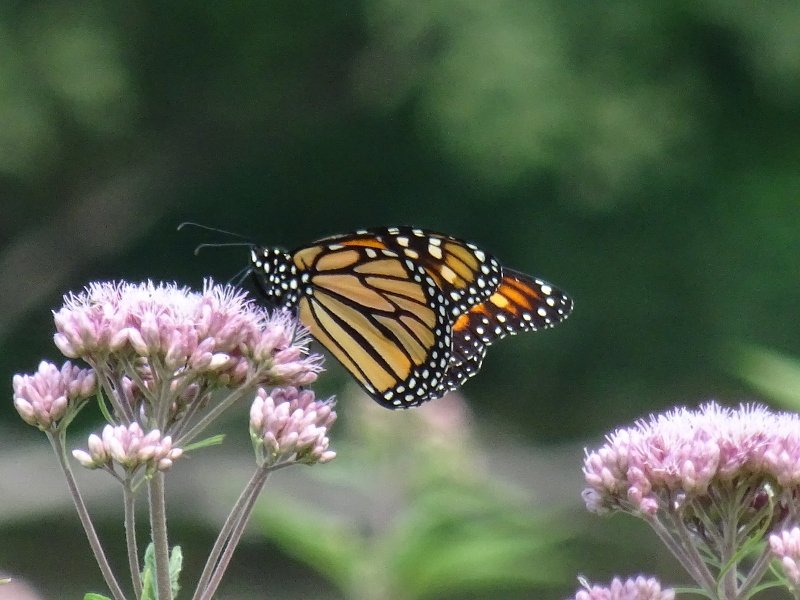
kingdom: Animalia
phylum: Arthropoda
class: Insecta
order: Lepidoptera
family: Nymphalidae
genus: Danaus
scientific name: Danaus plexippus
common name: Monarch
